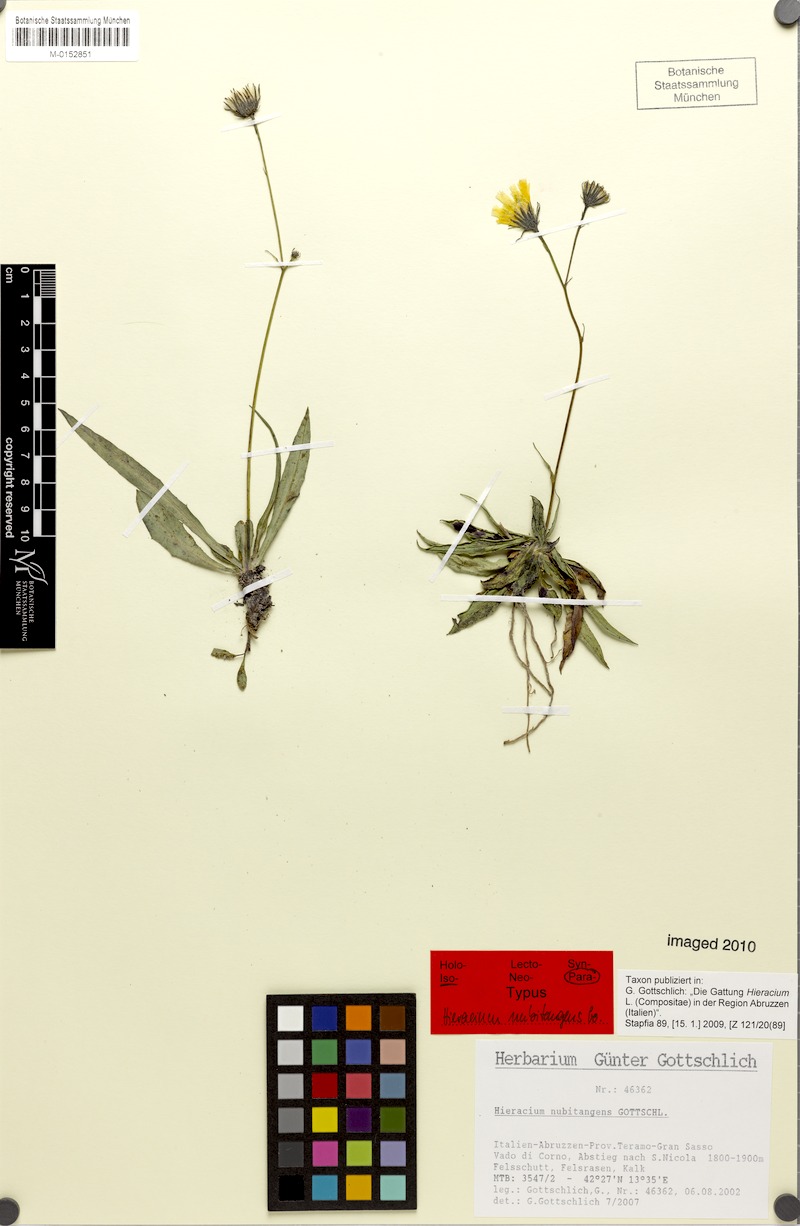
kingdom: Plantae
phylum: Tracheophyta
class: Magnoliopsida
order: Asterales
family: Asteraceae
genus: Hieracium
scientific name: Hieracium nubitangens
